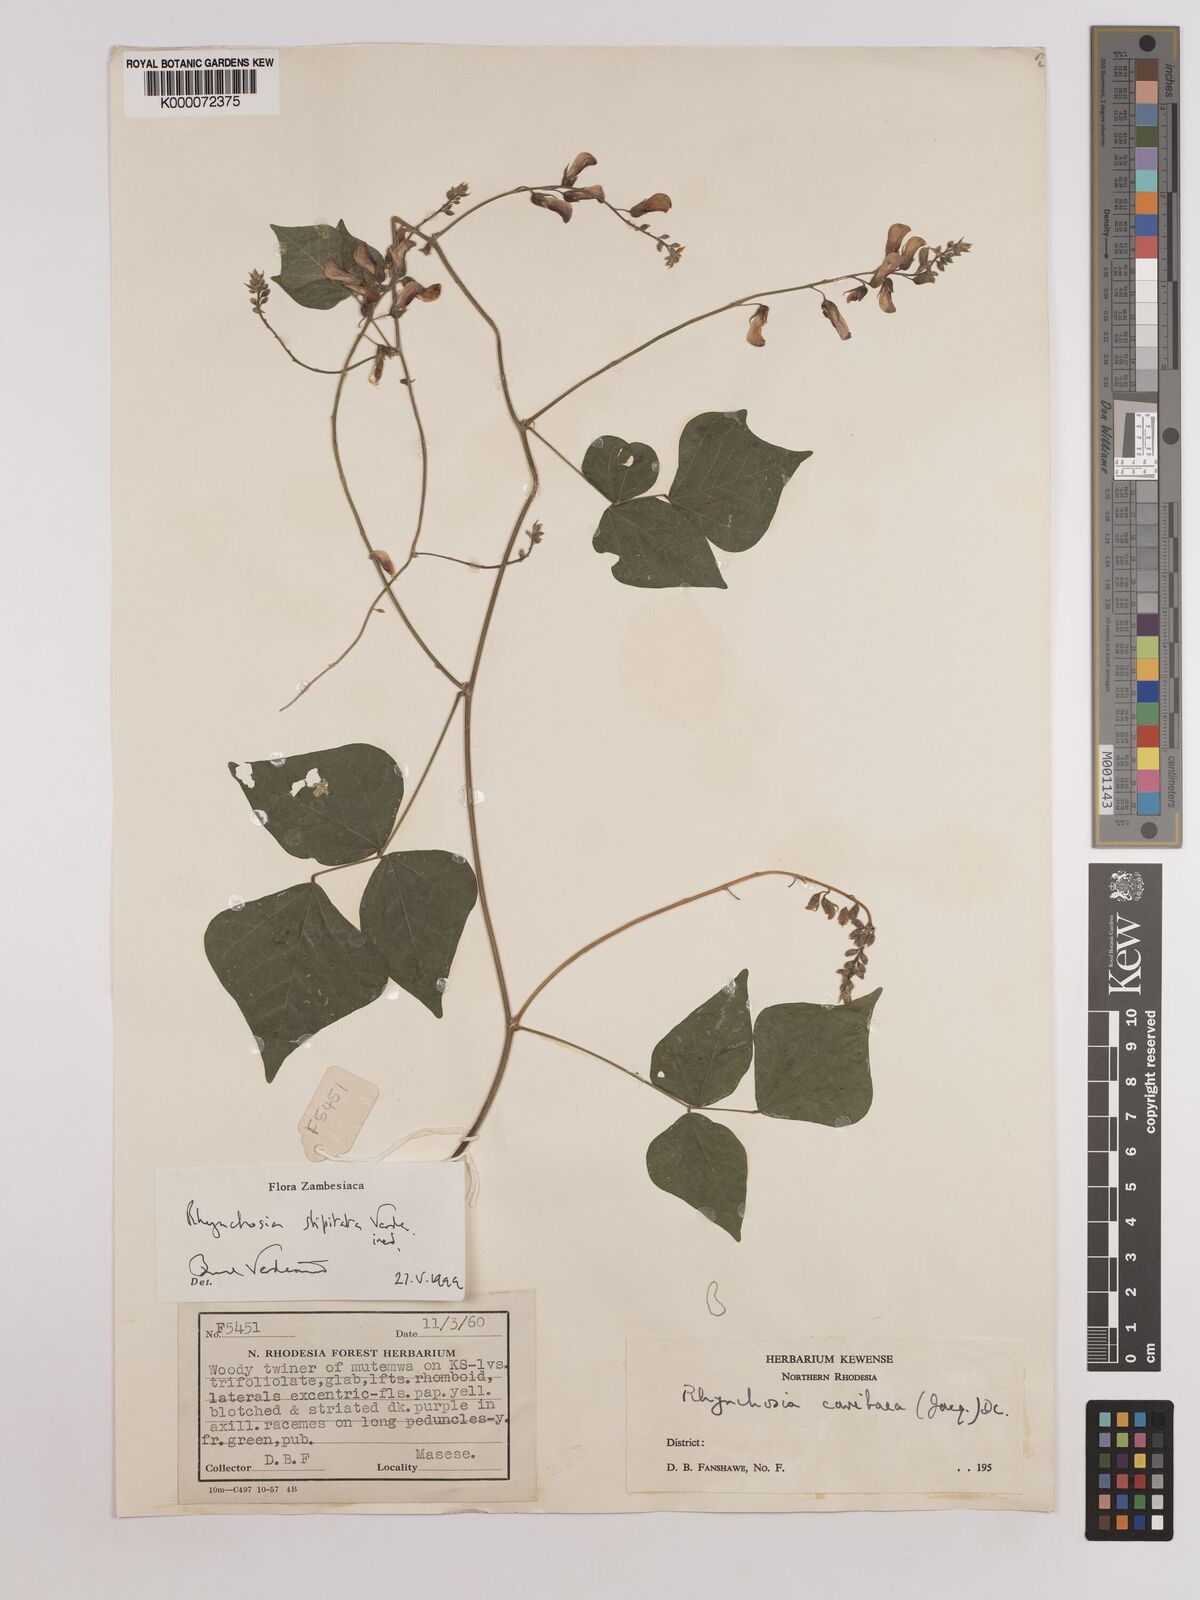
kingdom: Plantae
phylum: Tracheophyta
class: Magnoliopsida
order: Fabales
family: Fabaceae
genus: Rhynchosia
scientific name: Rhynchosia stipitata
